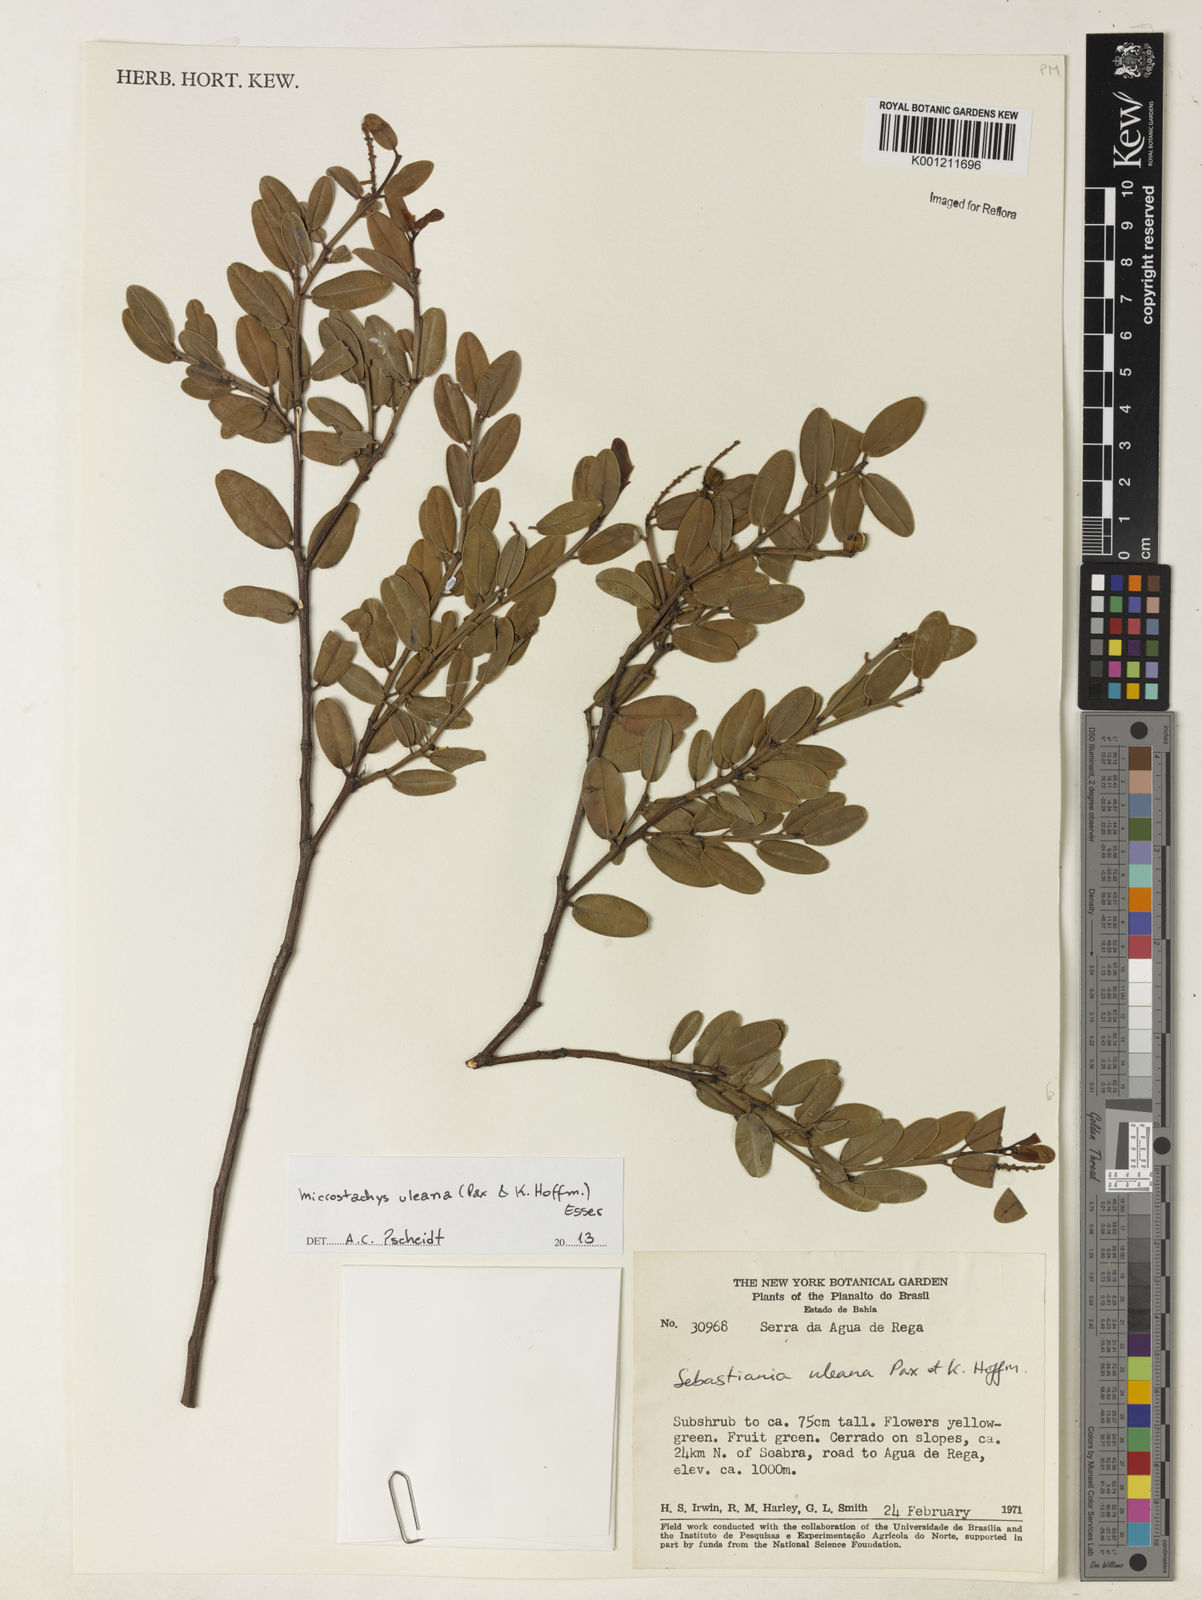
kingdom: Plantae
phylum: Tracheophyta
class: Magnoliopsida
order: Malpighiales
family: Euphorbiaceae
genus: Microstachys
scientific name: Microstachys uleana
